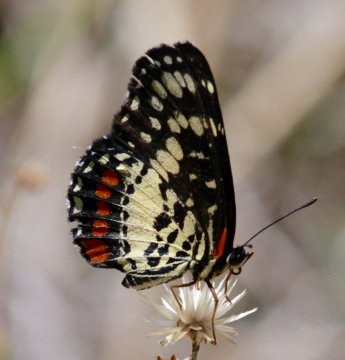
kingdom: Animalia
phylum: Arthropoda
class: Insecta
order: Lepidoptera
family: Nymphalidae
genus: Chlosyne
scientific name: Chlosyne marina
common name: Red-spotted Patch
